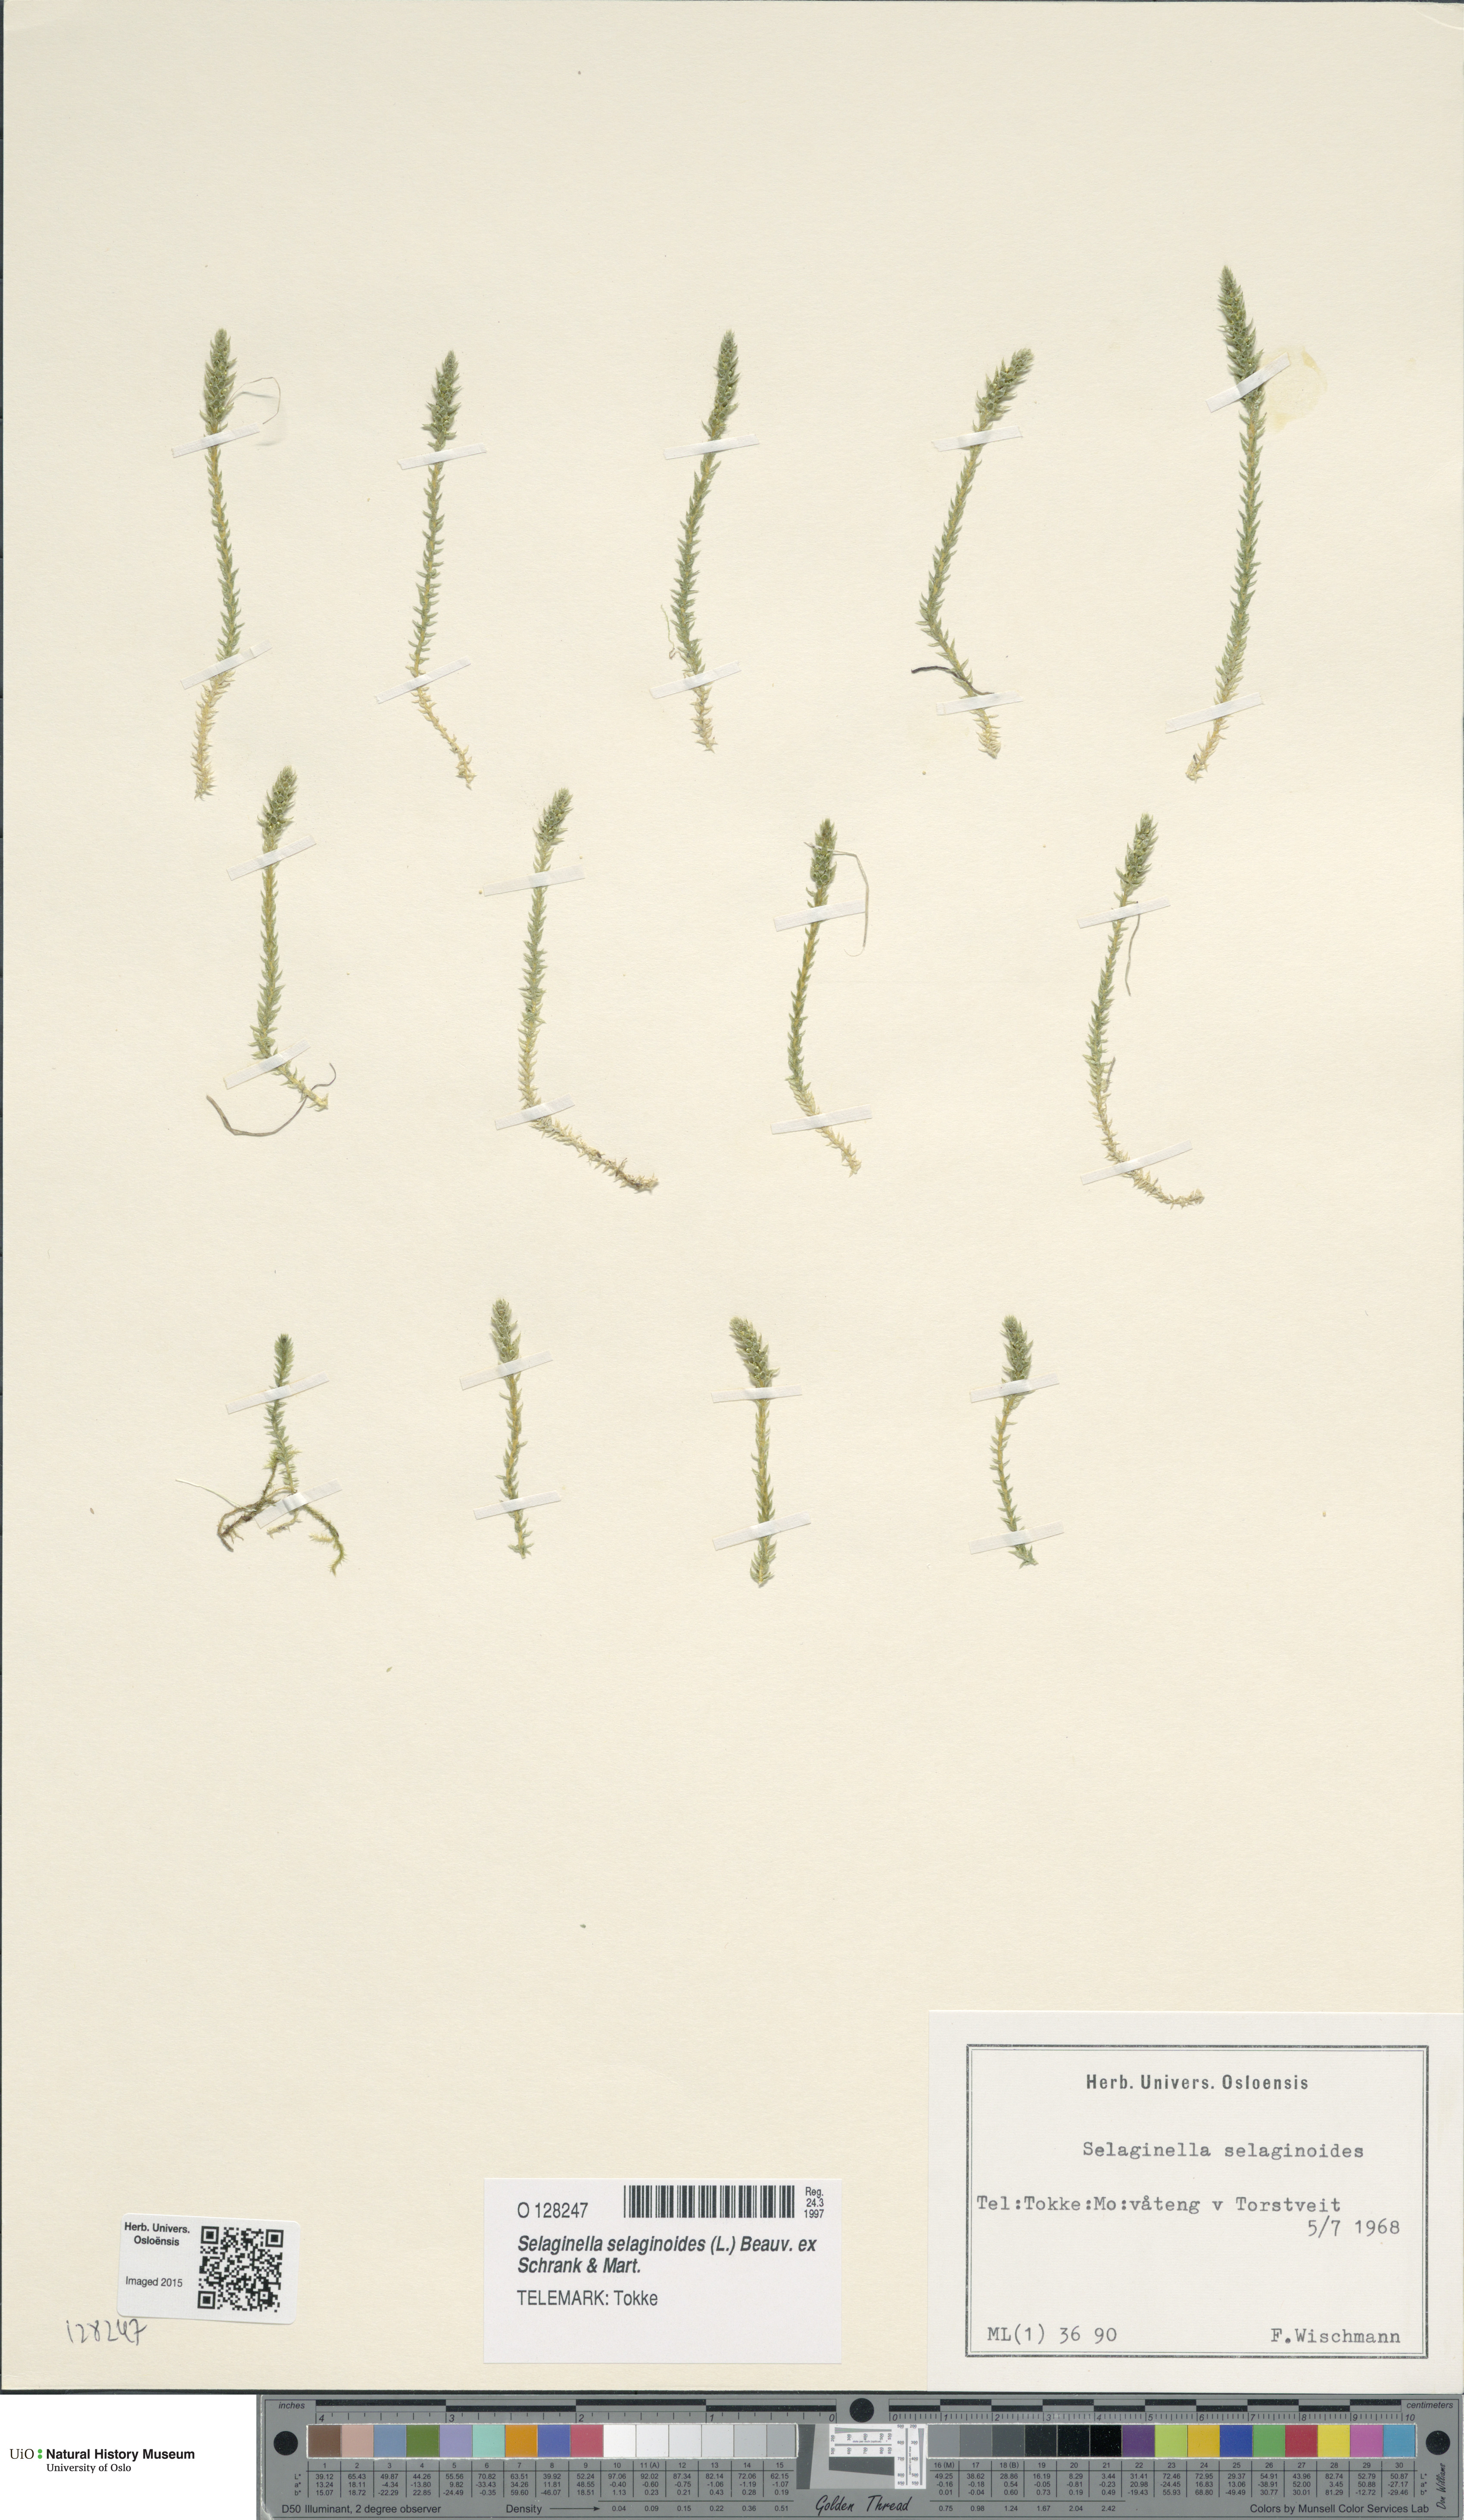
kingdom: Plantae
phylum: Tracheophyta
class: Lycopodiopsida
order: Selaginellales
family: Selaginellaceae
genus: Selaginella
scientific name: Selaginella selaginoides
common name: Prickly mountain-moss
